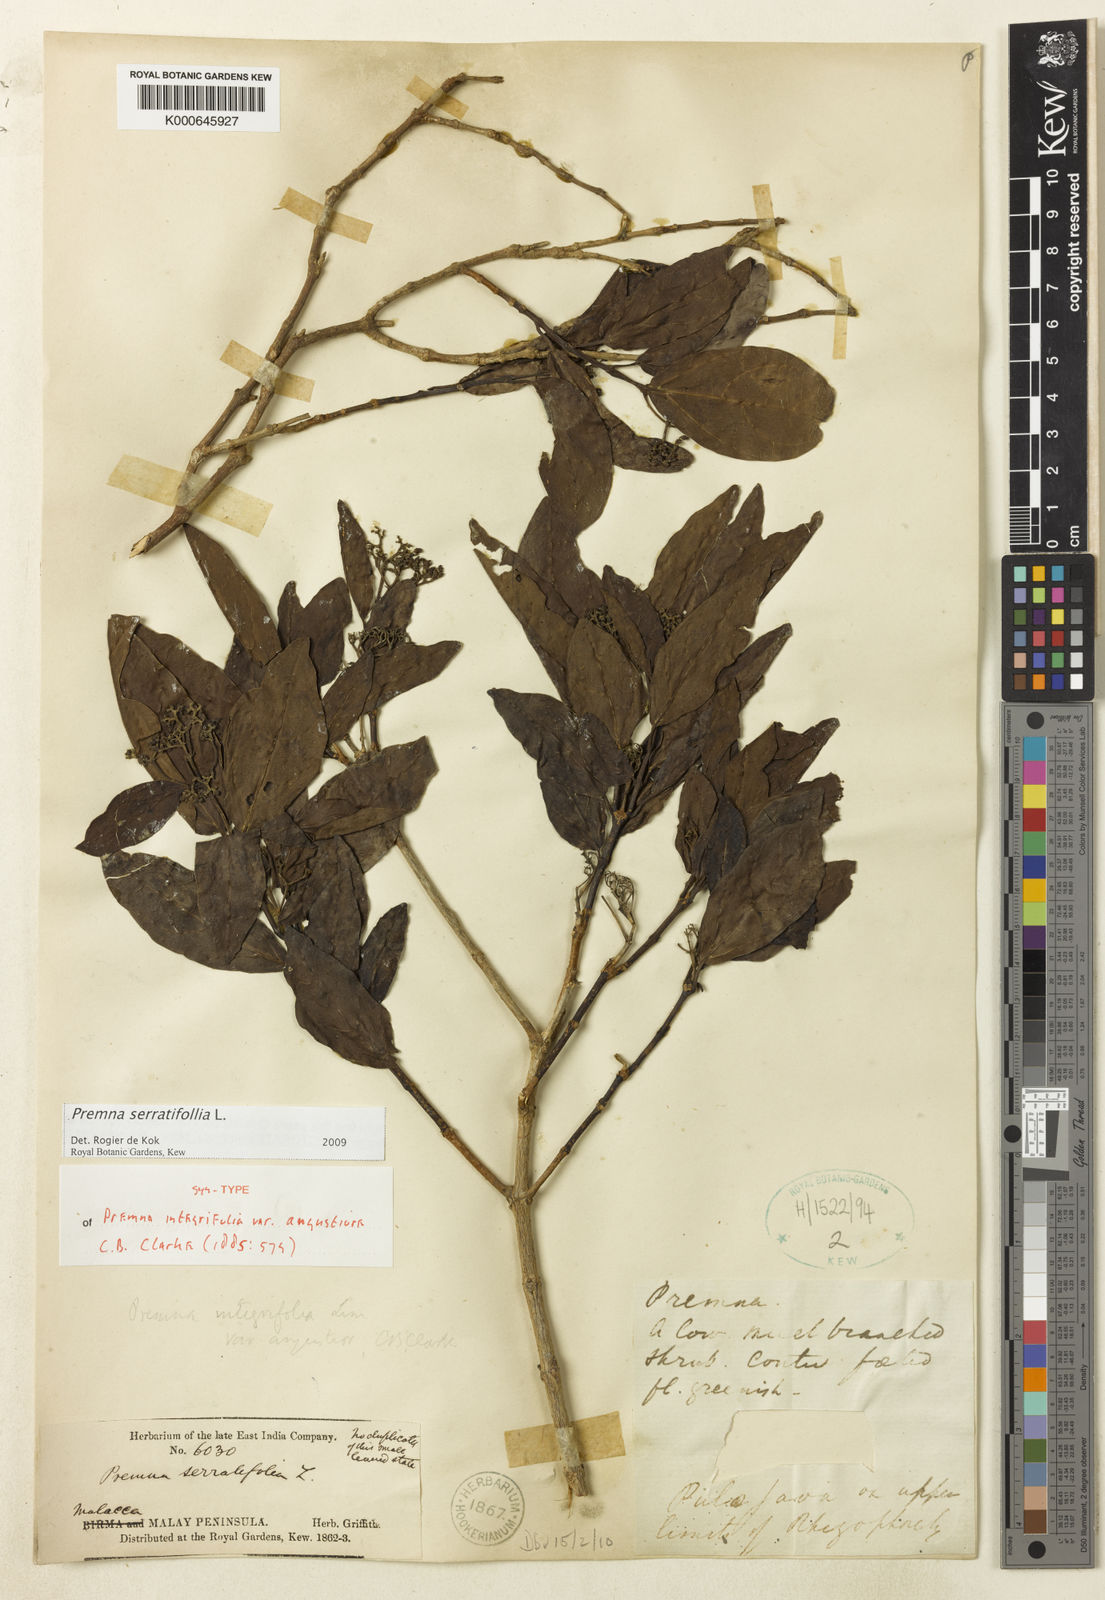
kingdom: Plantae
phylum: Tracheophyta
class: Magnoliopsida
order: Lamiales
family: Lamiaceae
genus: Premna
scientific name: Premna serratifolia
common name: Bastard guelder
